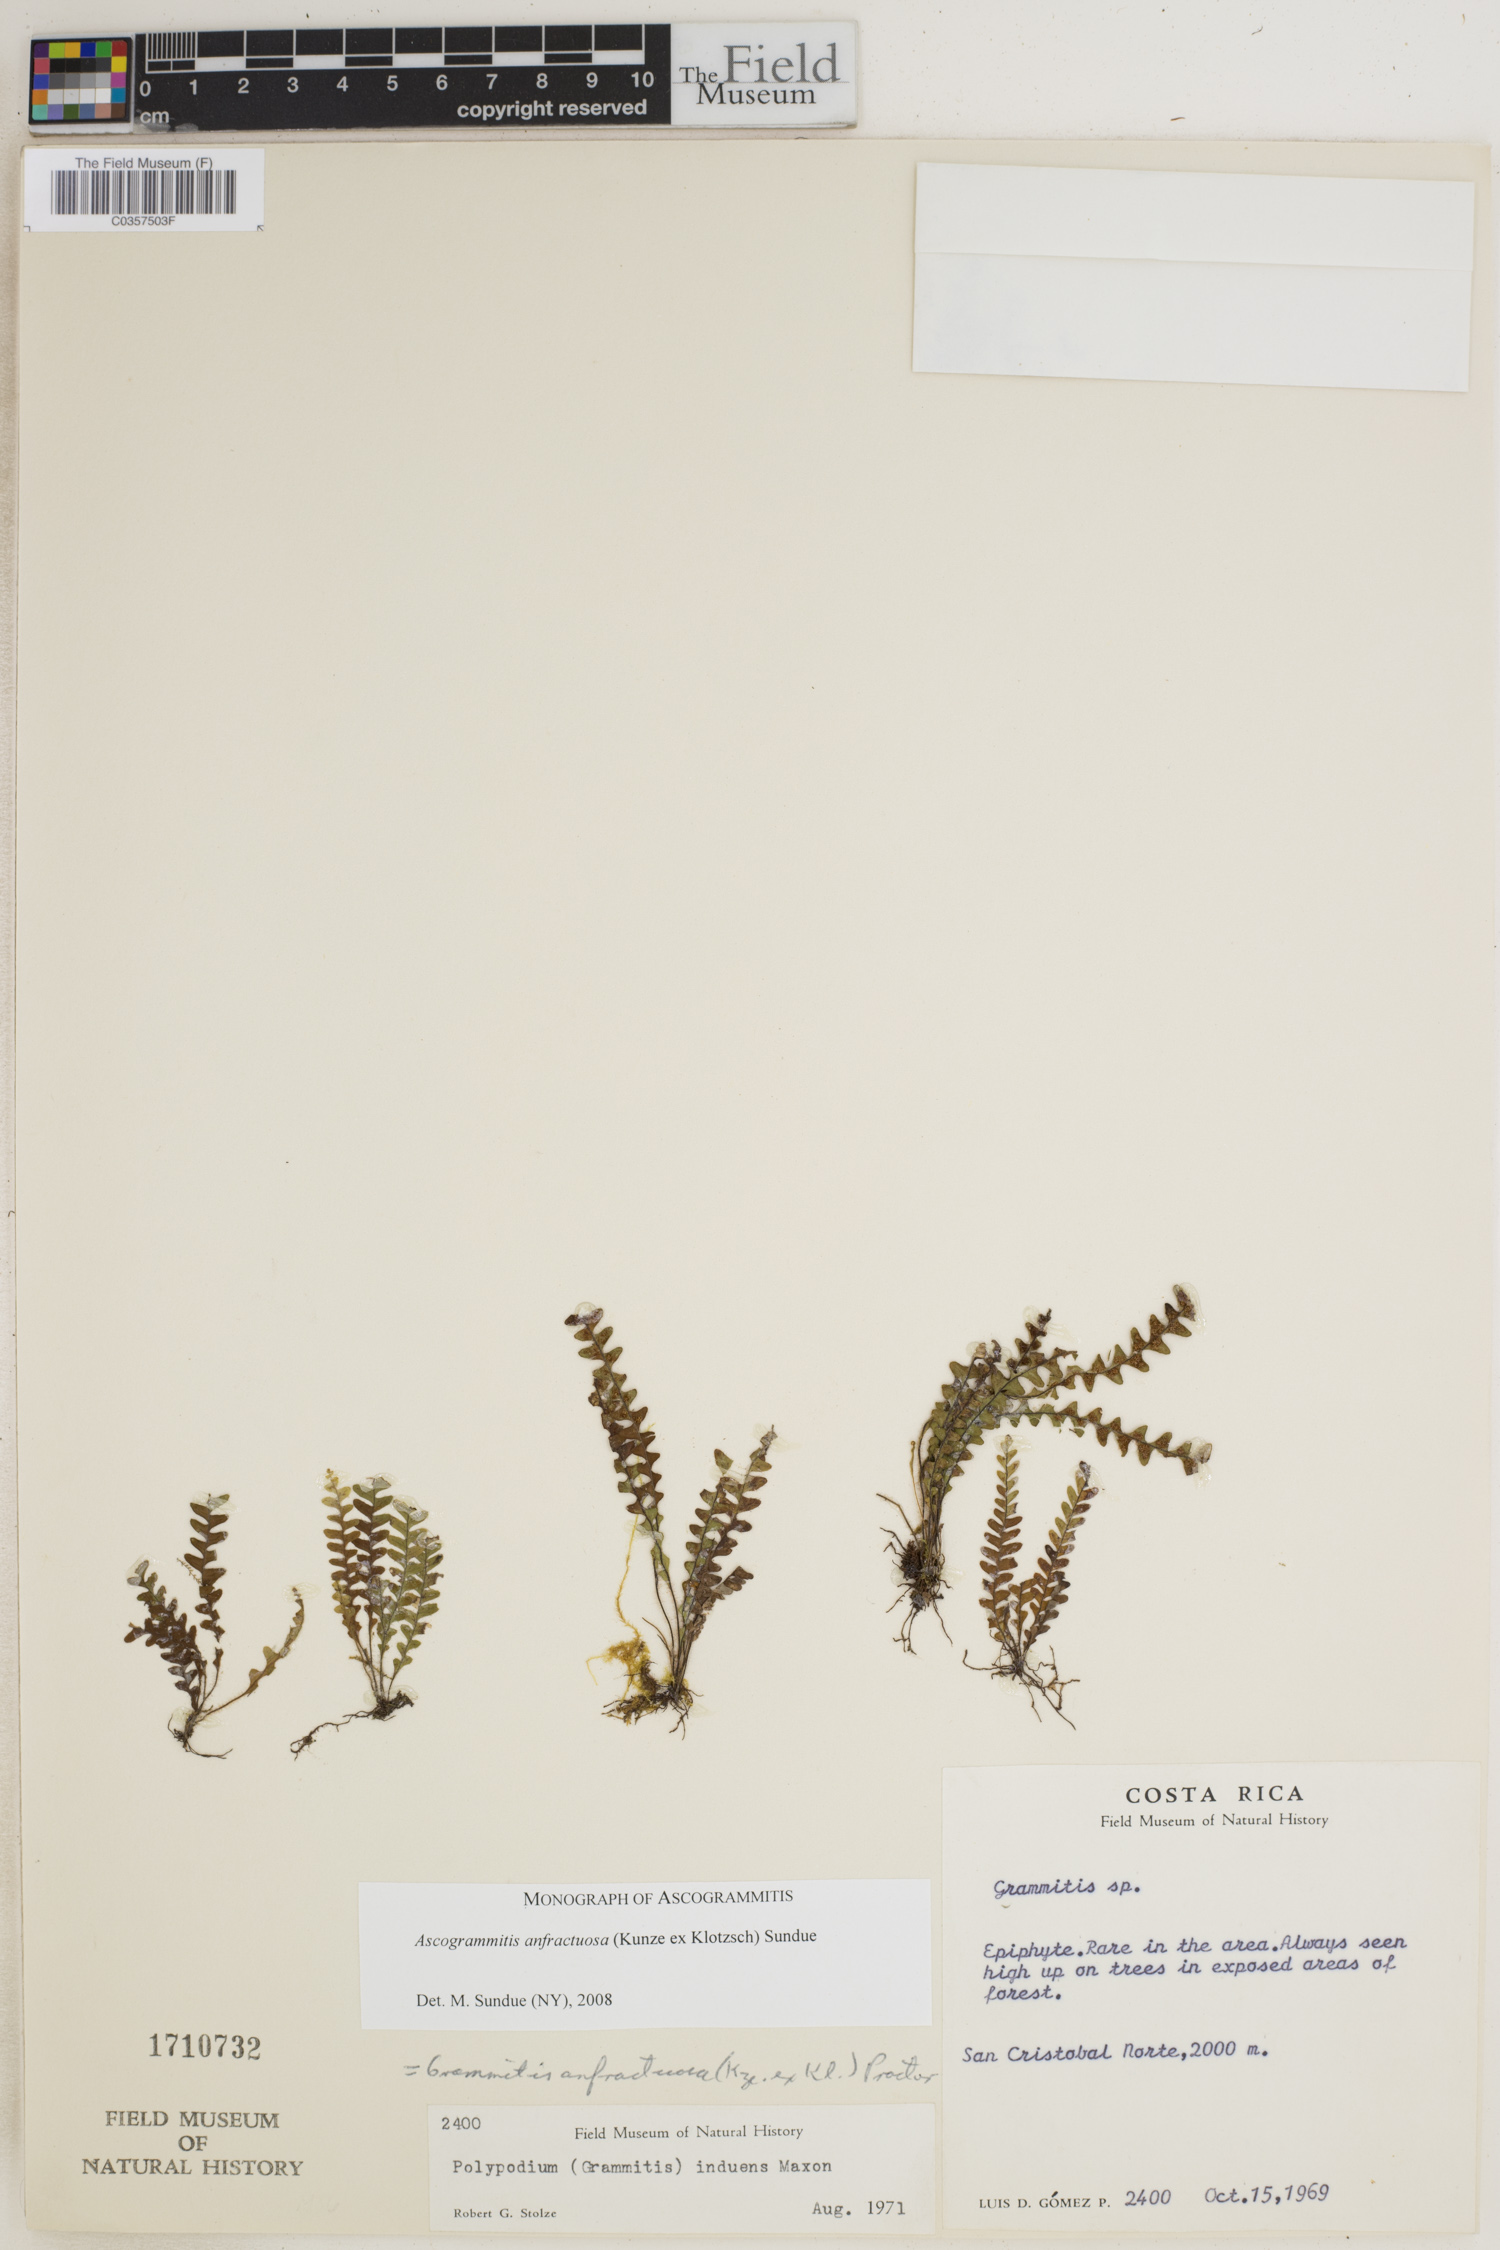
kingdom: Plantae
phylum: Tracheophyta
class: Polypodiopsida
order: Polypodiales
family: Polypodiaceae
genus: Ascogrammitis
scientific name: Ascogrammitis anfractuosa
